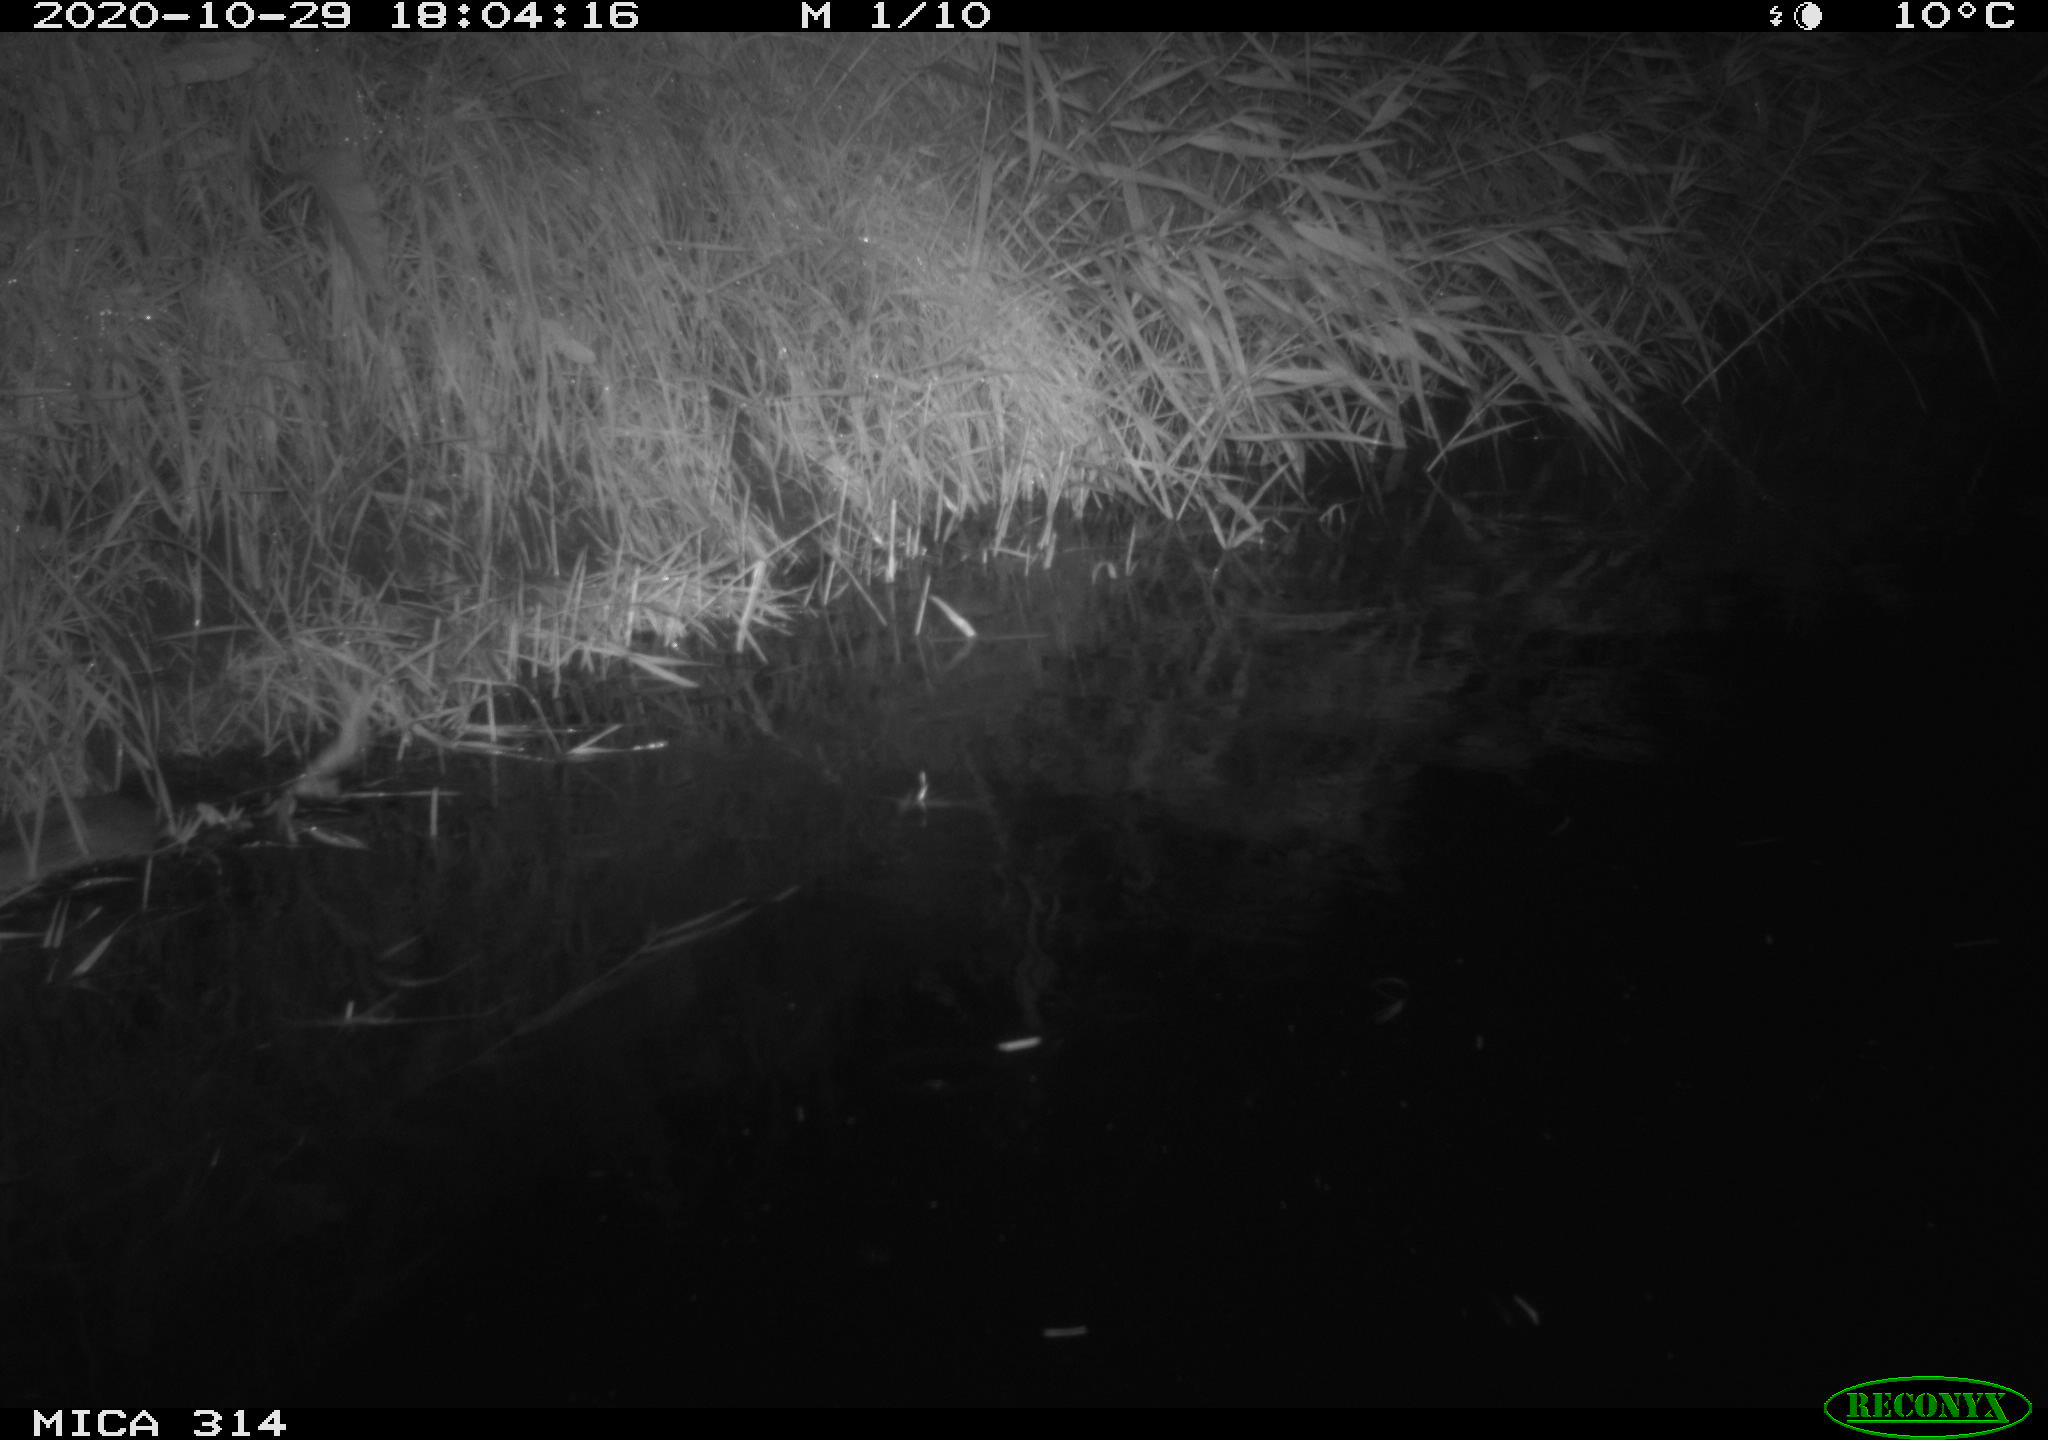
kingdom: Animalia
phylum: Chordata
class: Mammalia
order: Rodentia
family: Muridae
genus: Rattus
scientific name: Rattus norvegicus
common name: Brown rat
